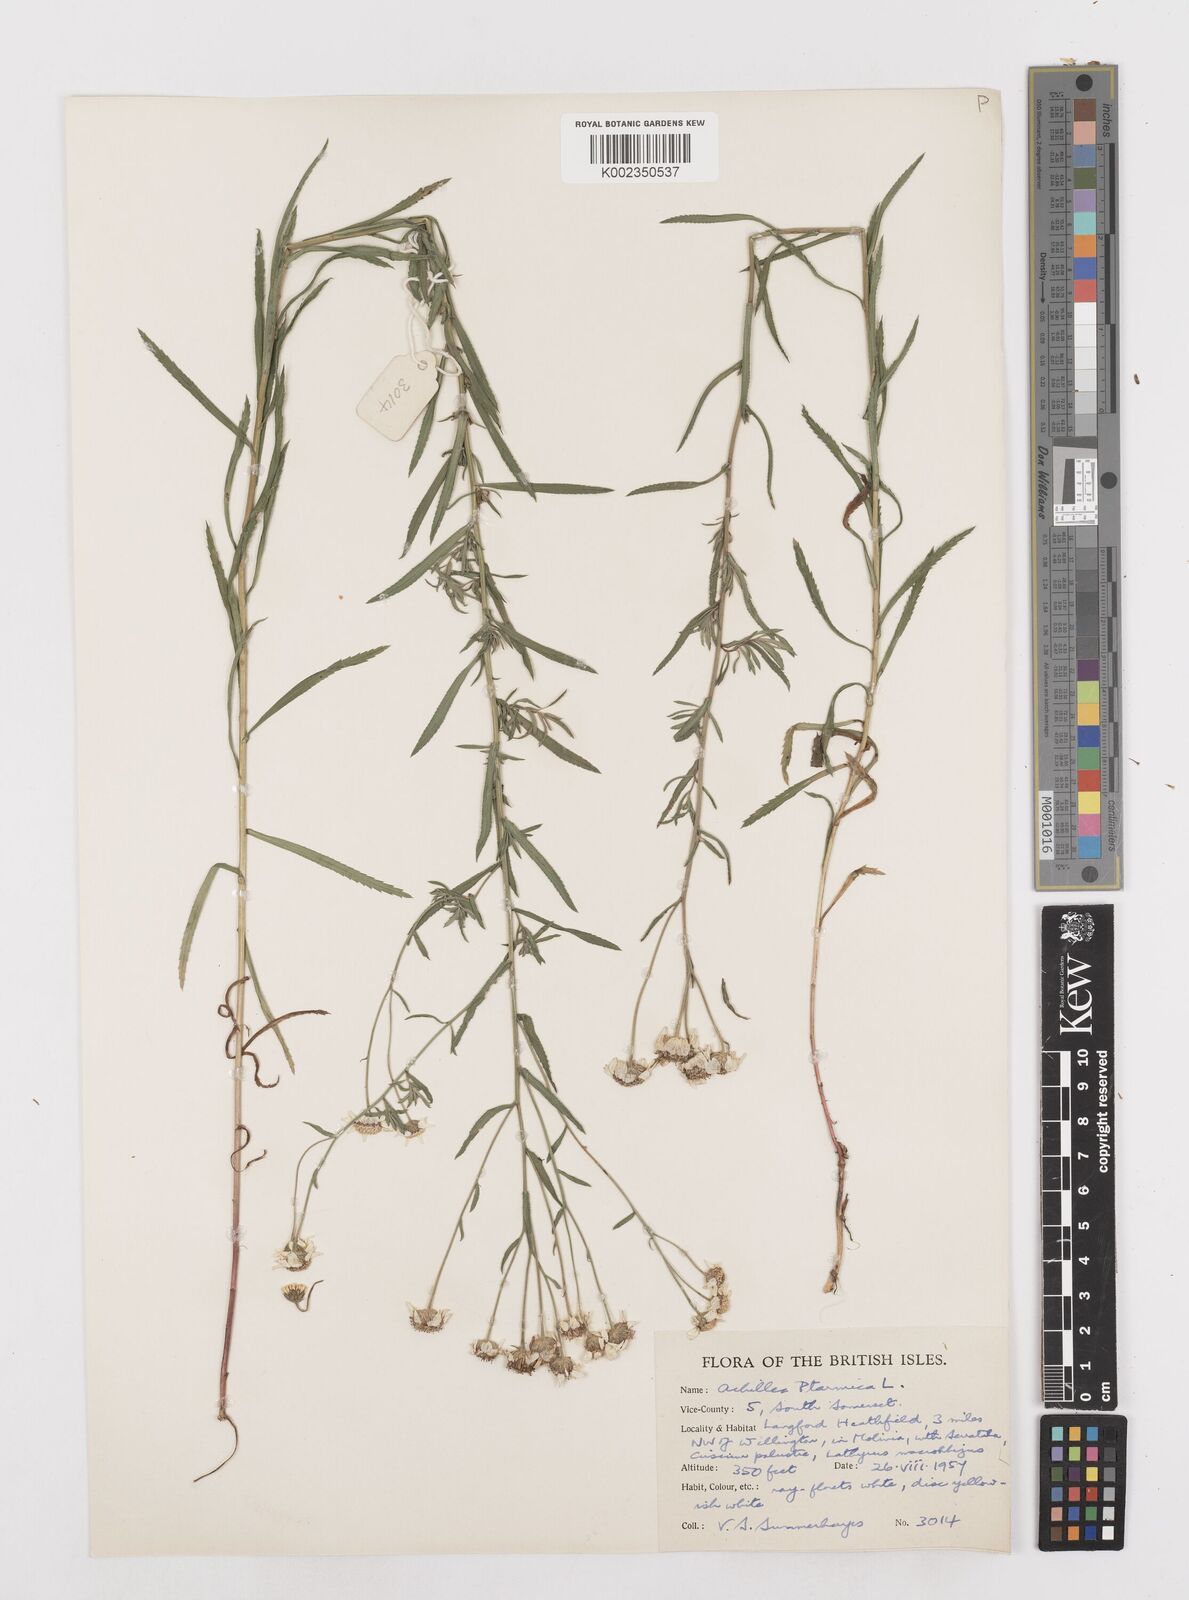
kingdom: Plantae
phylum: Tracheophyta
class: Magnoliopsida
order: Asterales
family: Asteraceae
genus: Achillea
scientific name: Achillea ptarmica
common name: Sneezeweed
